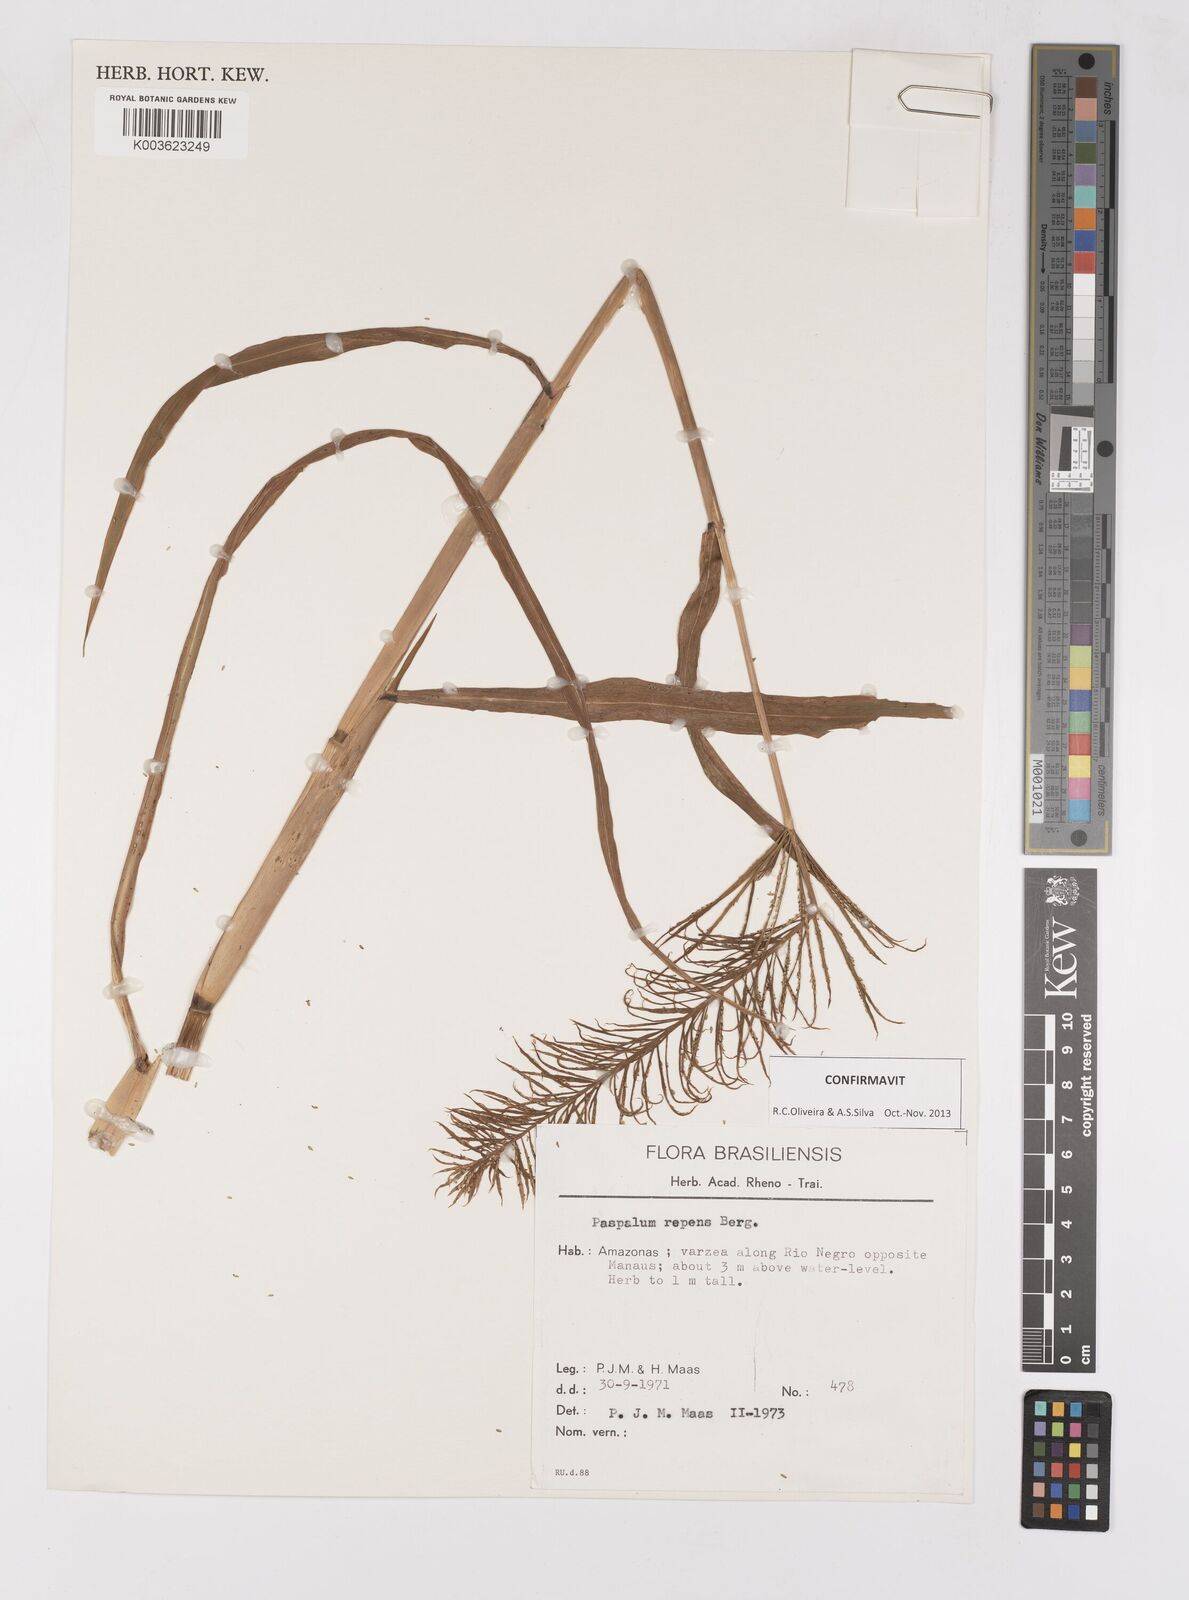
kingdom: Plantae
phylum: Tracheophyta
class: Liliopsida
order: Poales
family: Poaceae
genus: Paspalum
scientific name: Paspalum repens
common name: Water paspalum
